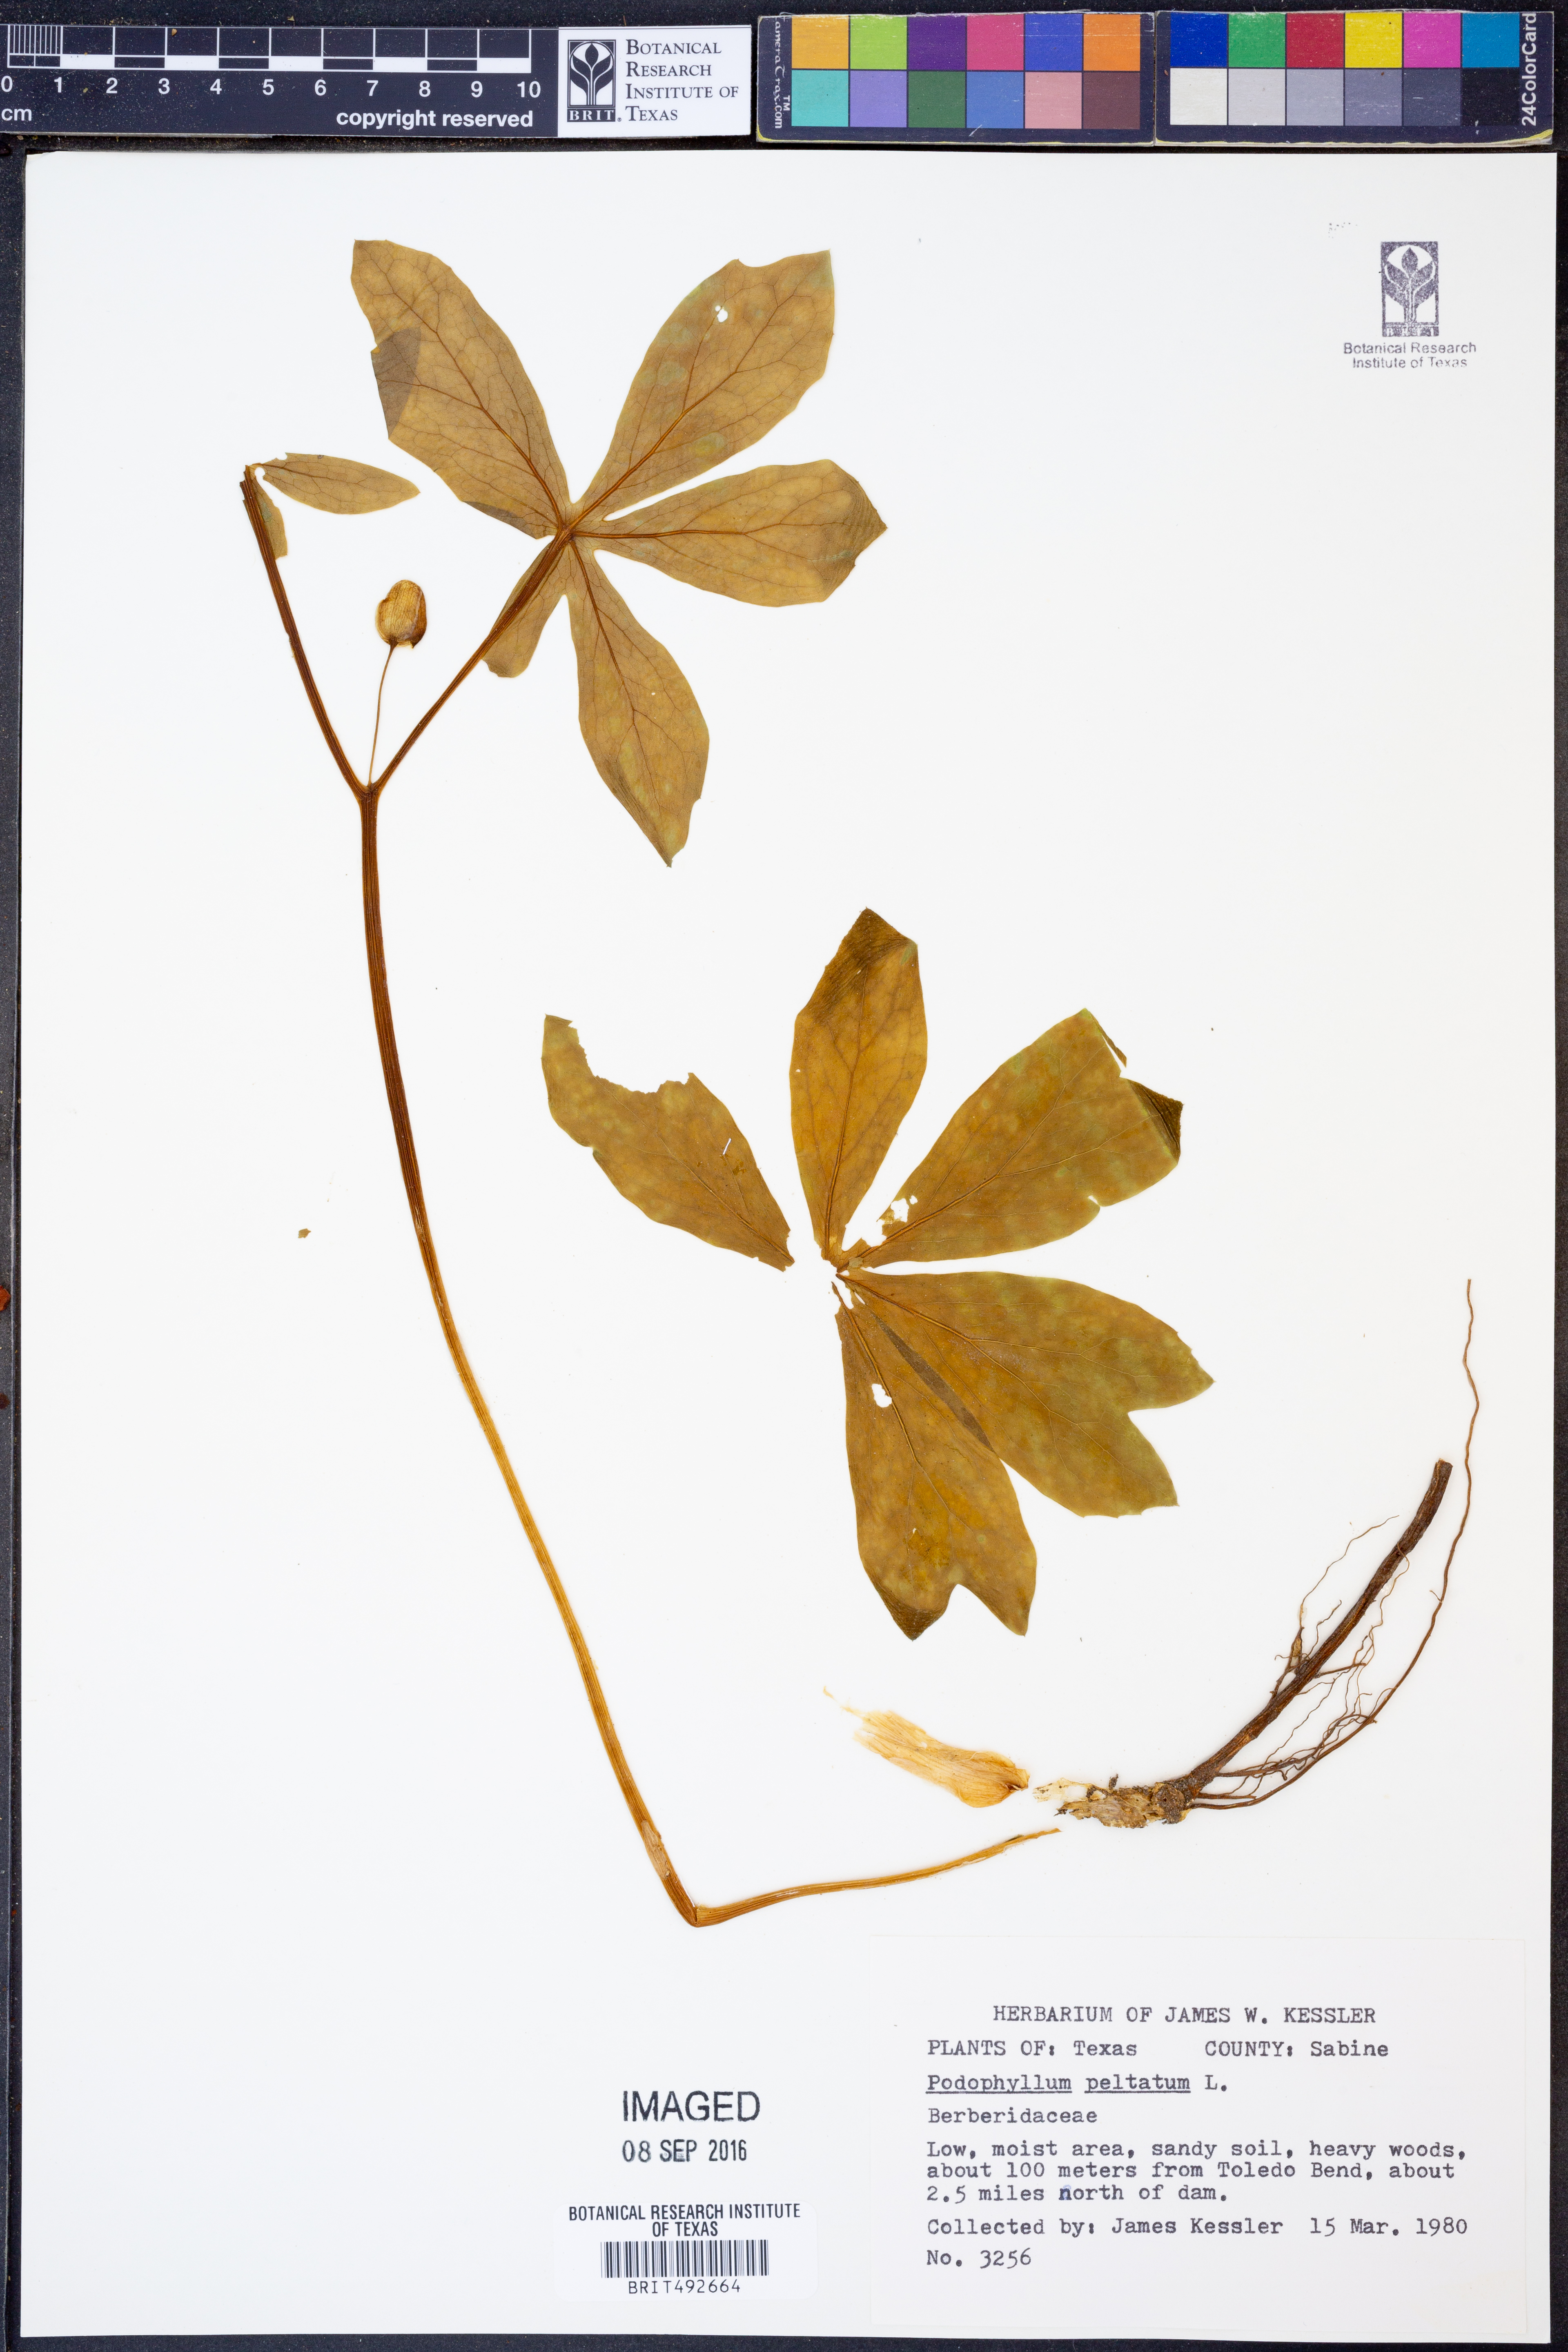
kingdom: Plantae
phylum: Tracheophyta
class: Magnoliopsida
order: Ranunculales
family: Berberidaceae
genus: Podophyllum
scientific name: Podophyllum peltatum
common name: Wild mandrake
